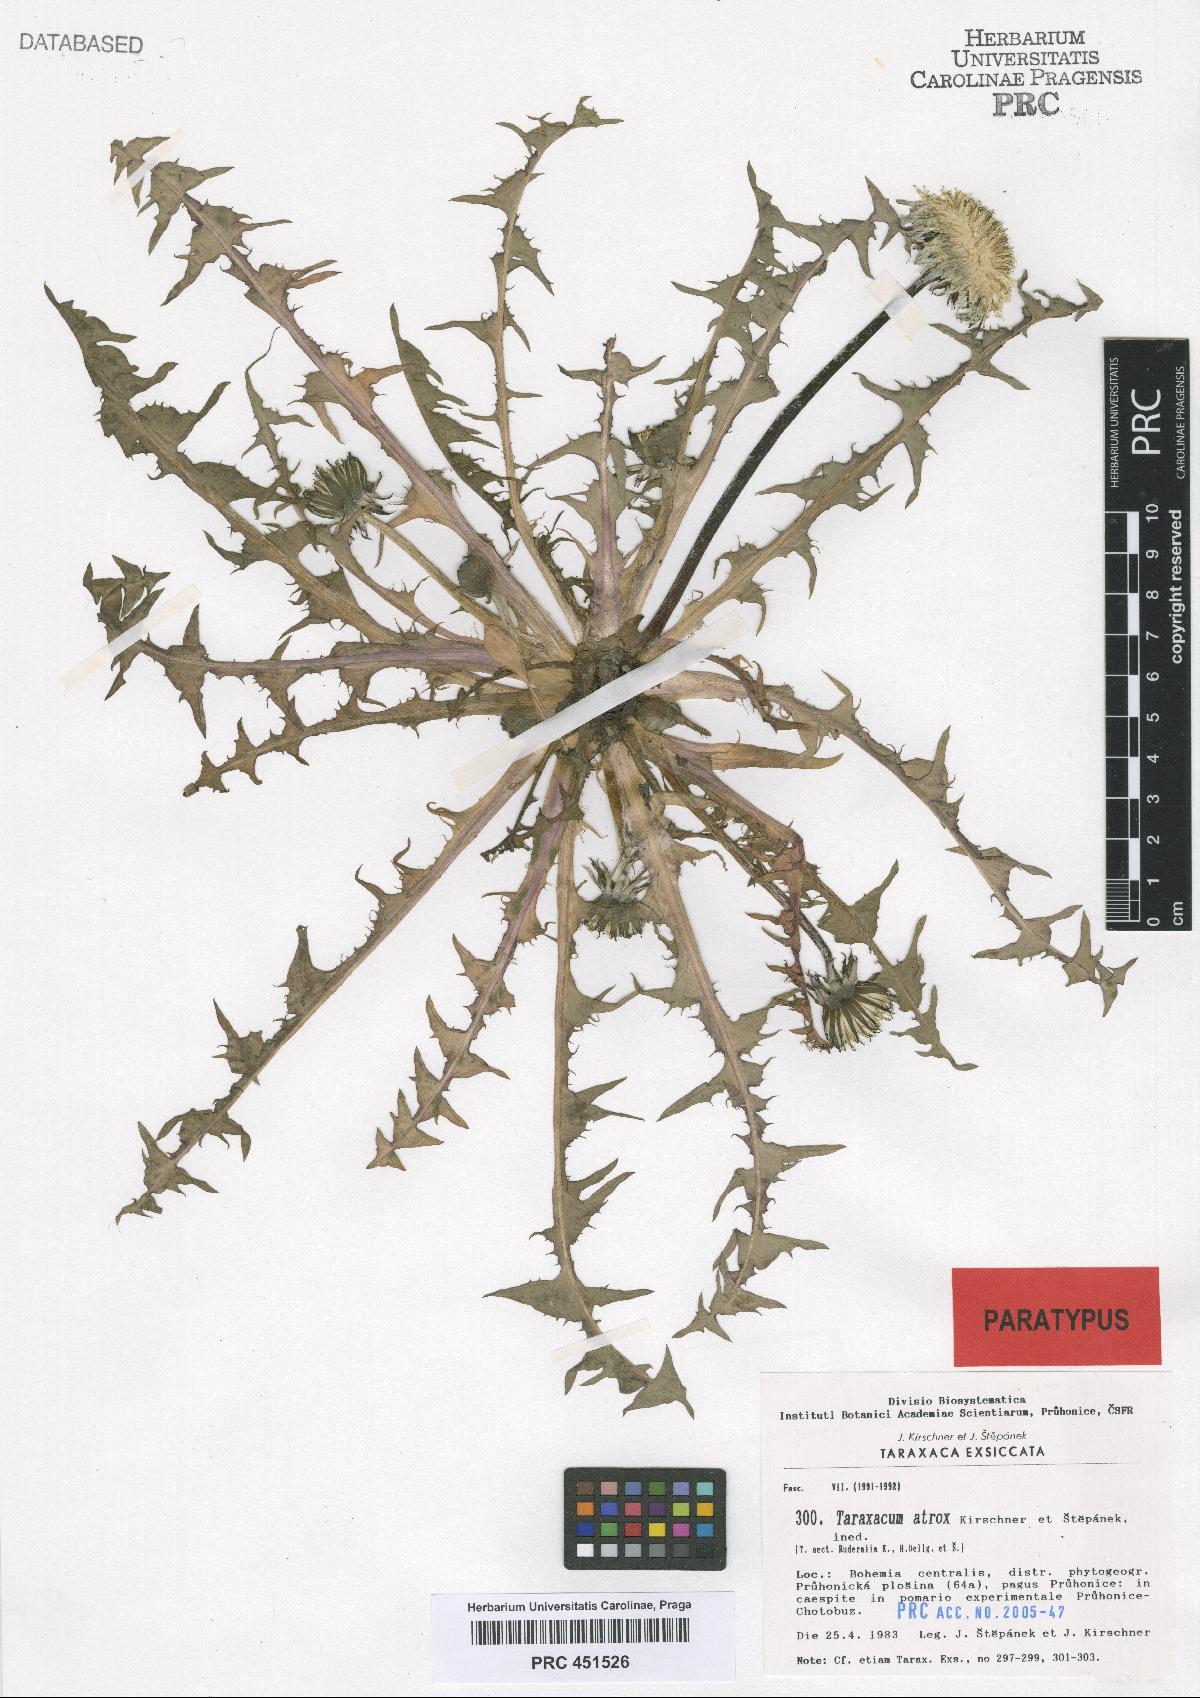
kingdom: Plantae
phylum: Tracheophyta
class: Magnoliopsida
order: Asterales
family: Asteraceae
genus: Taraxacum
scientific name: Taraxacum atrox
